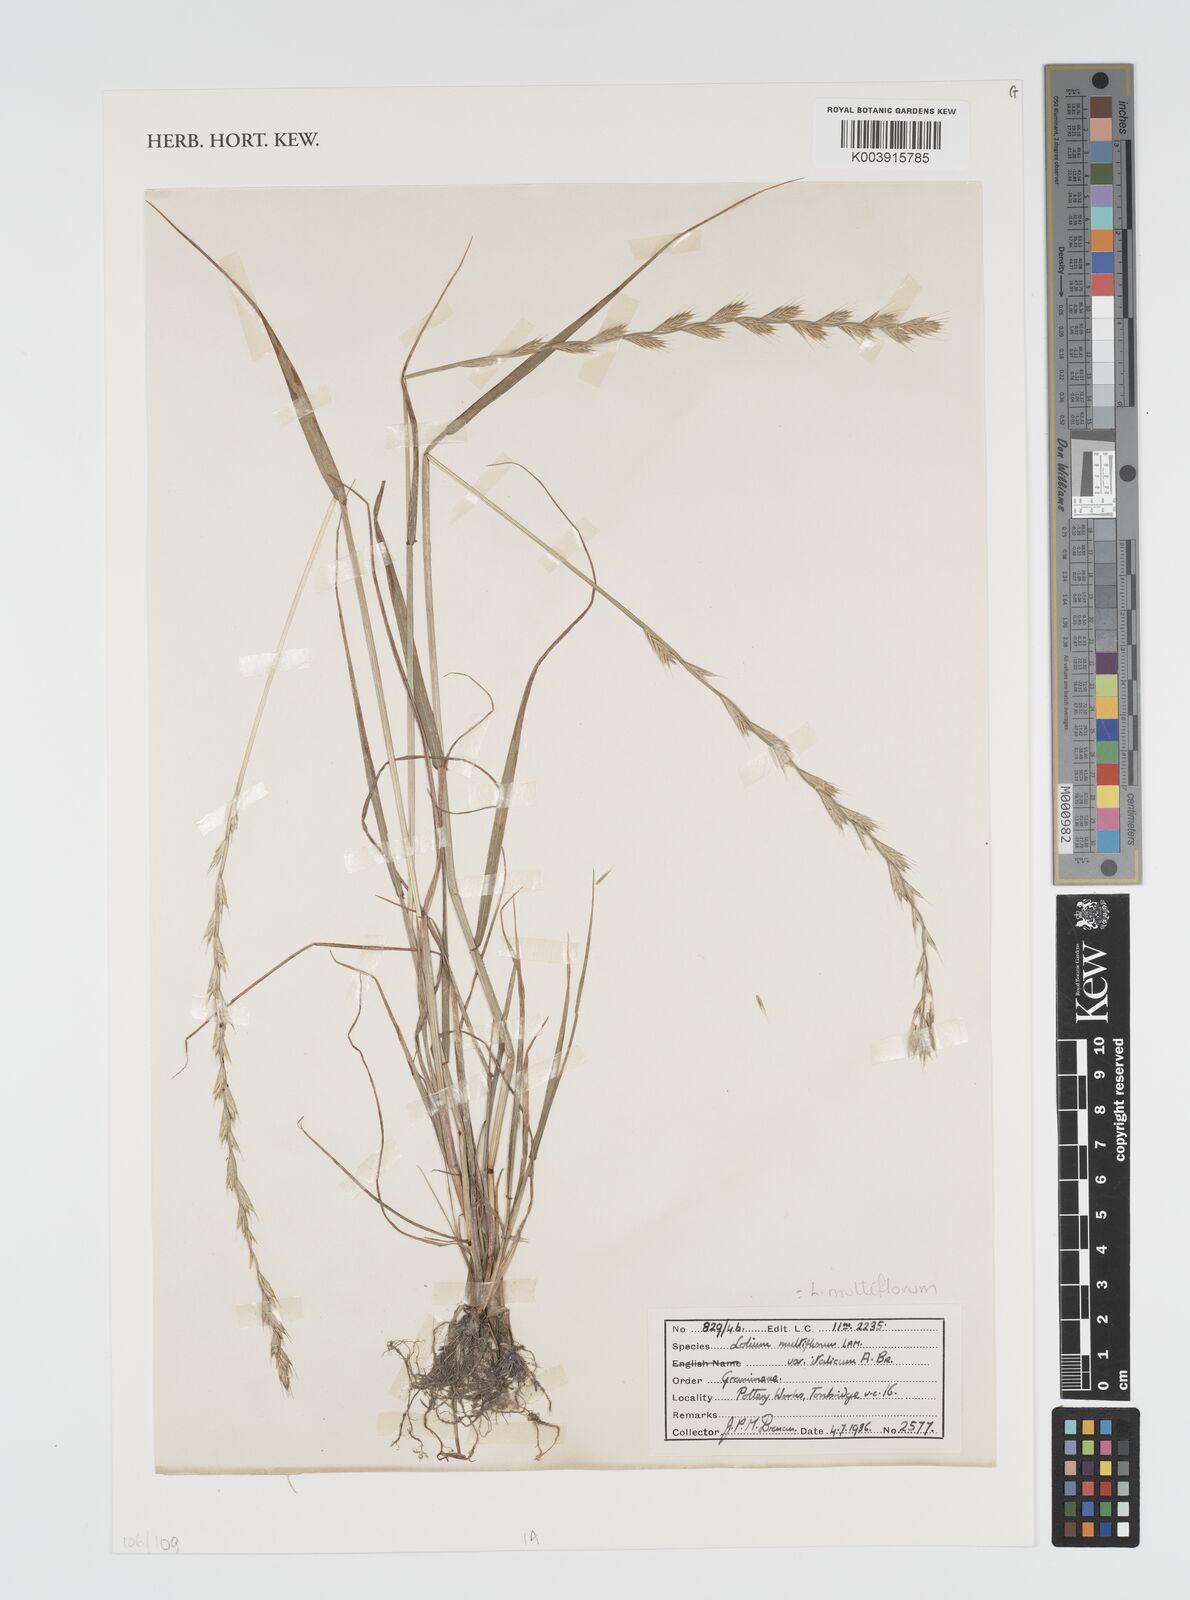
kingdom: Plantae
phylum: Tracheophyta
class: Liliopsida
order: Poales
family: Poaceae
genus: Lolium
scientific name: Lolium multiflorum
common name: Annual ryegrass
